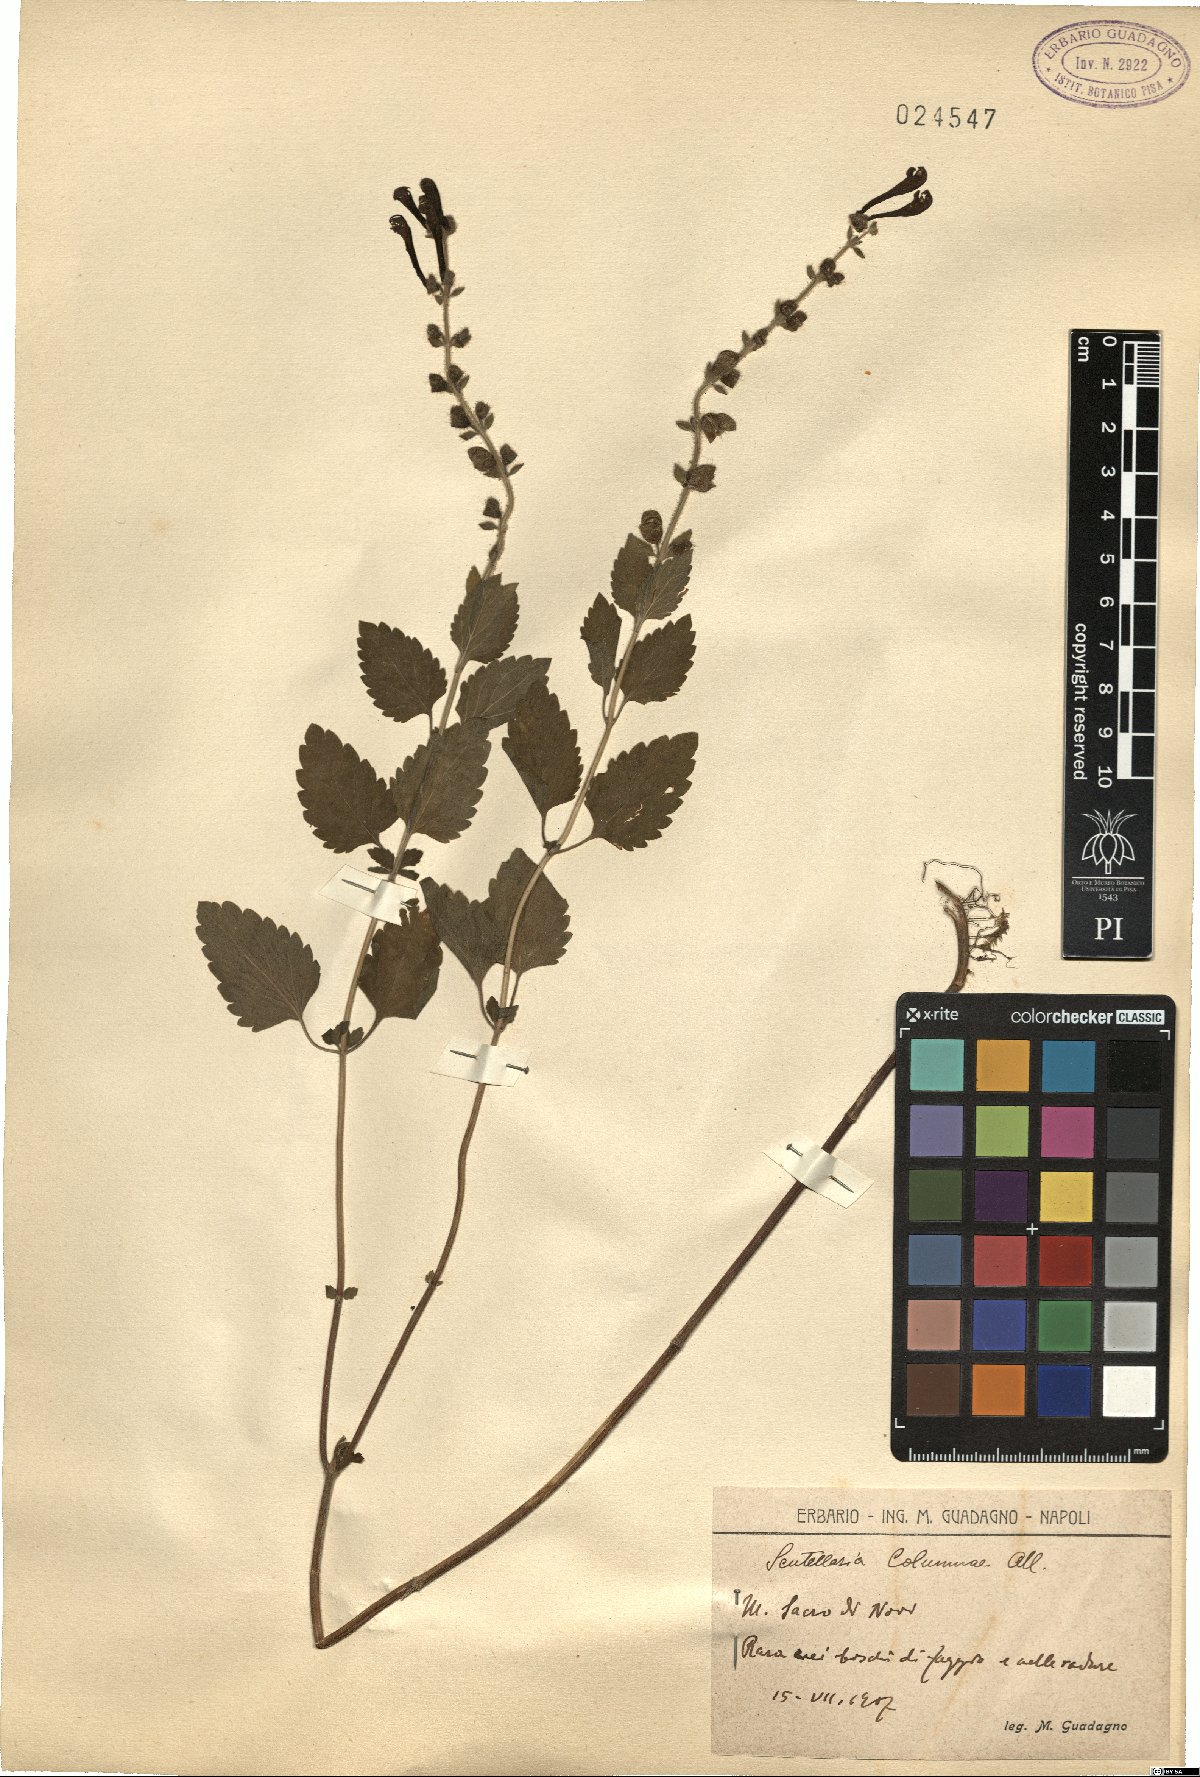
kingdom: Plantae
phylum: Tracheophyta
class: Magnoliopsida
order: Lamiales
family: Lamiaceae
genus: Scutellaria
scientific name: Scutellaria columnae
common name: Large skullcap
